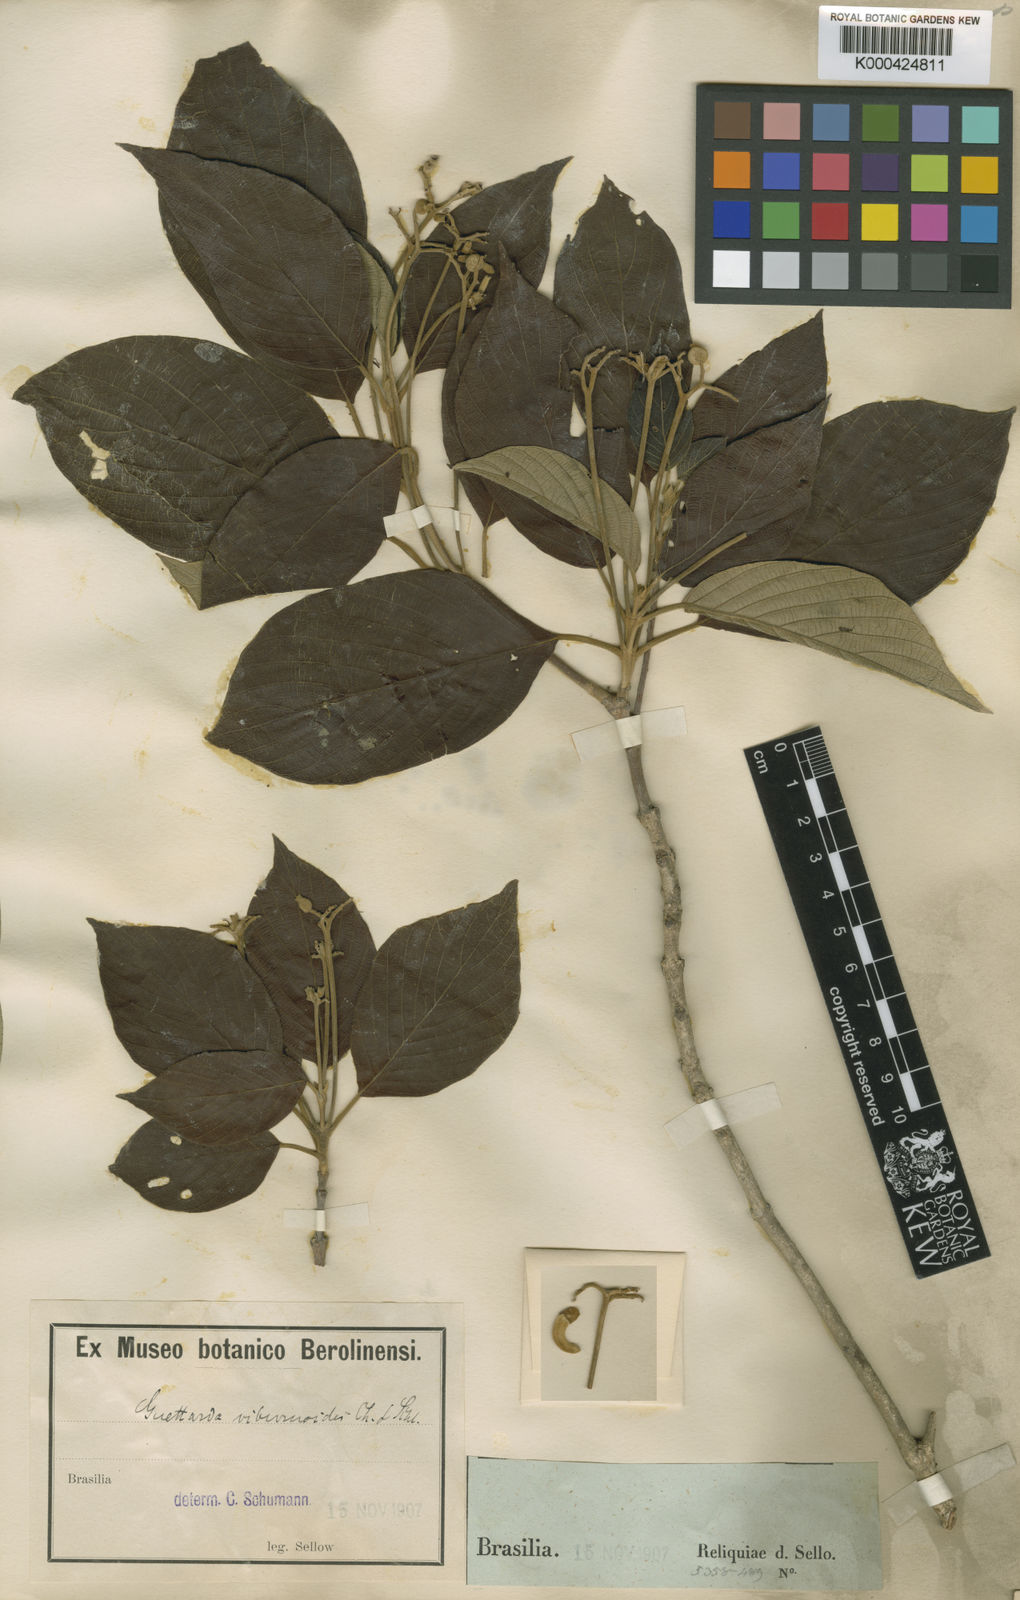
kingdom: Plantae
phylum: Tracheophyta
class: Magnoliopsida
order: Gentianales
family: Rubiaceae
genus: Guettarda
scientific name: Guettarda viburnoides
